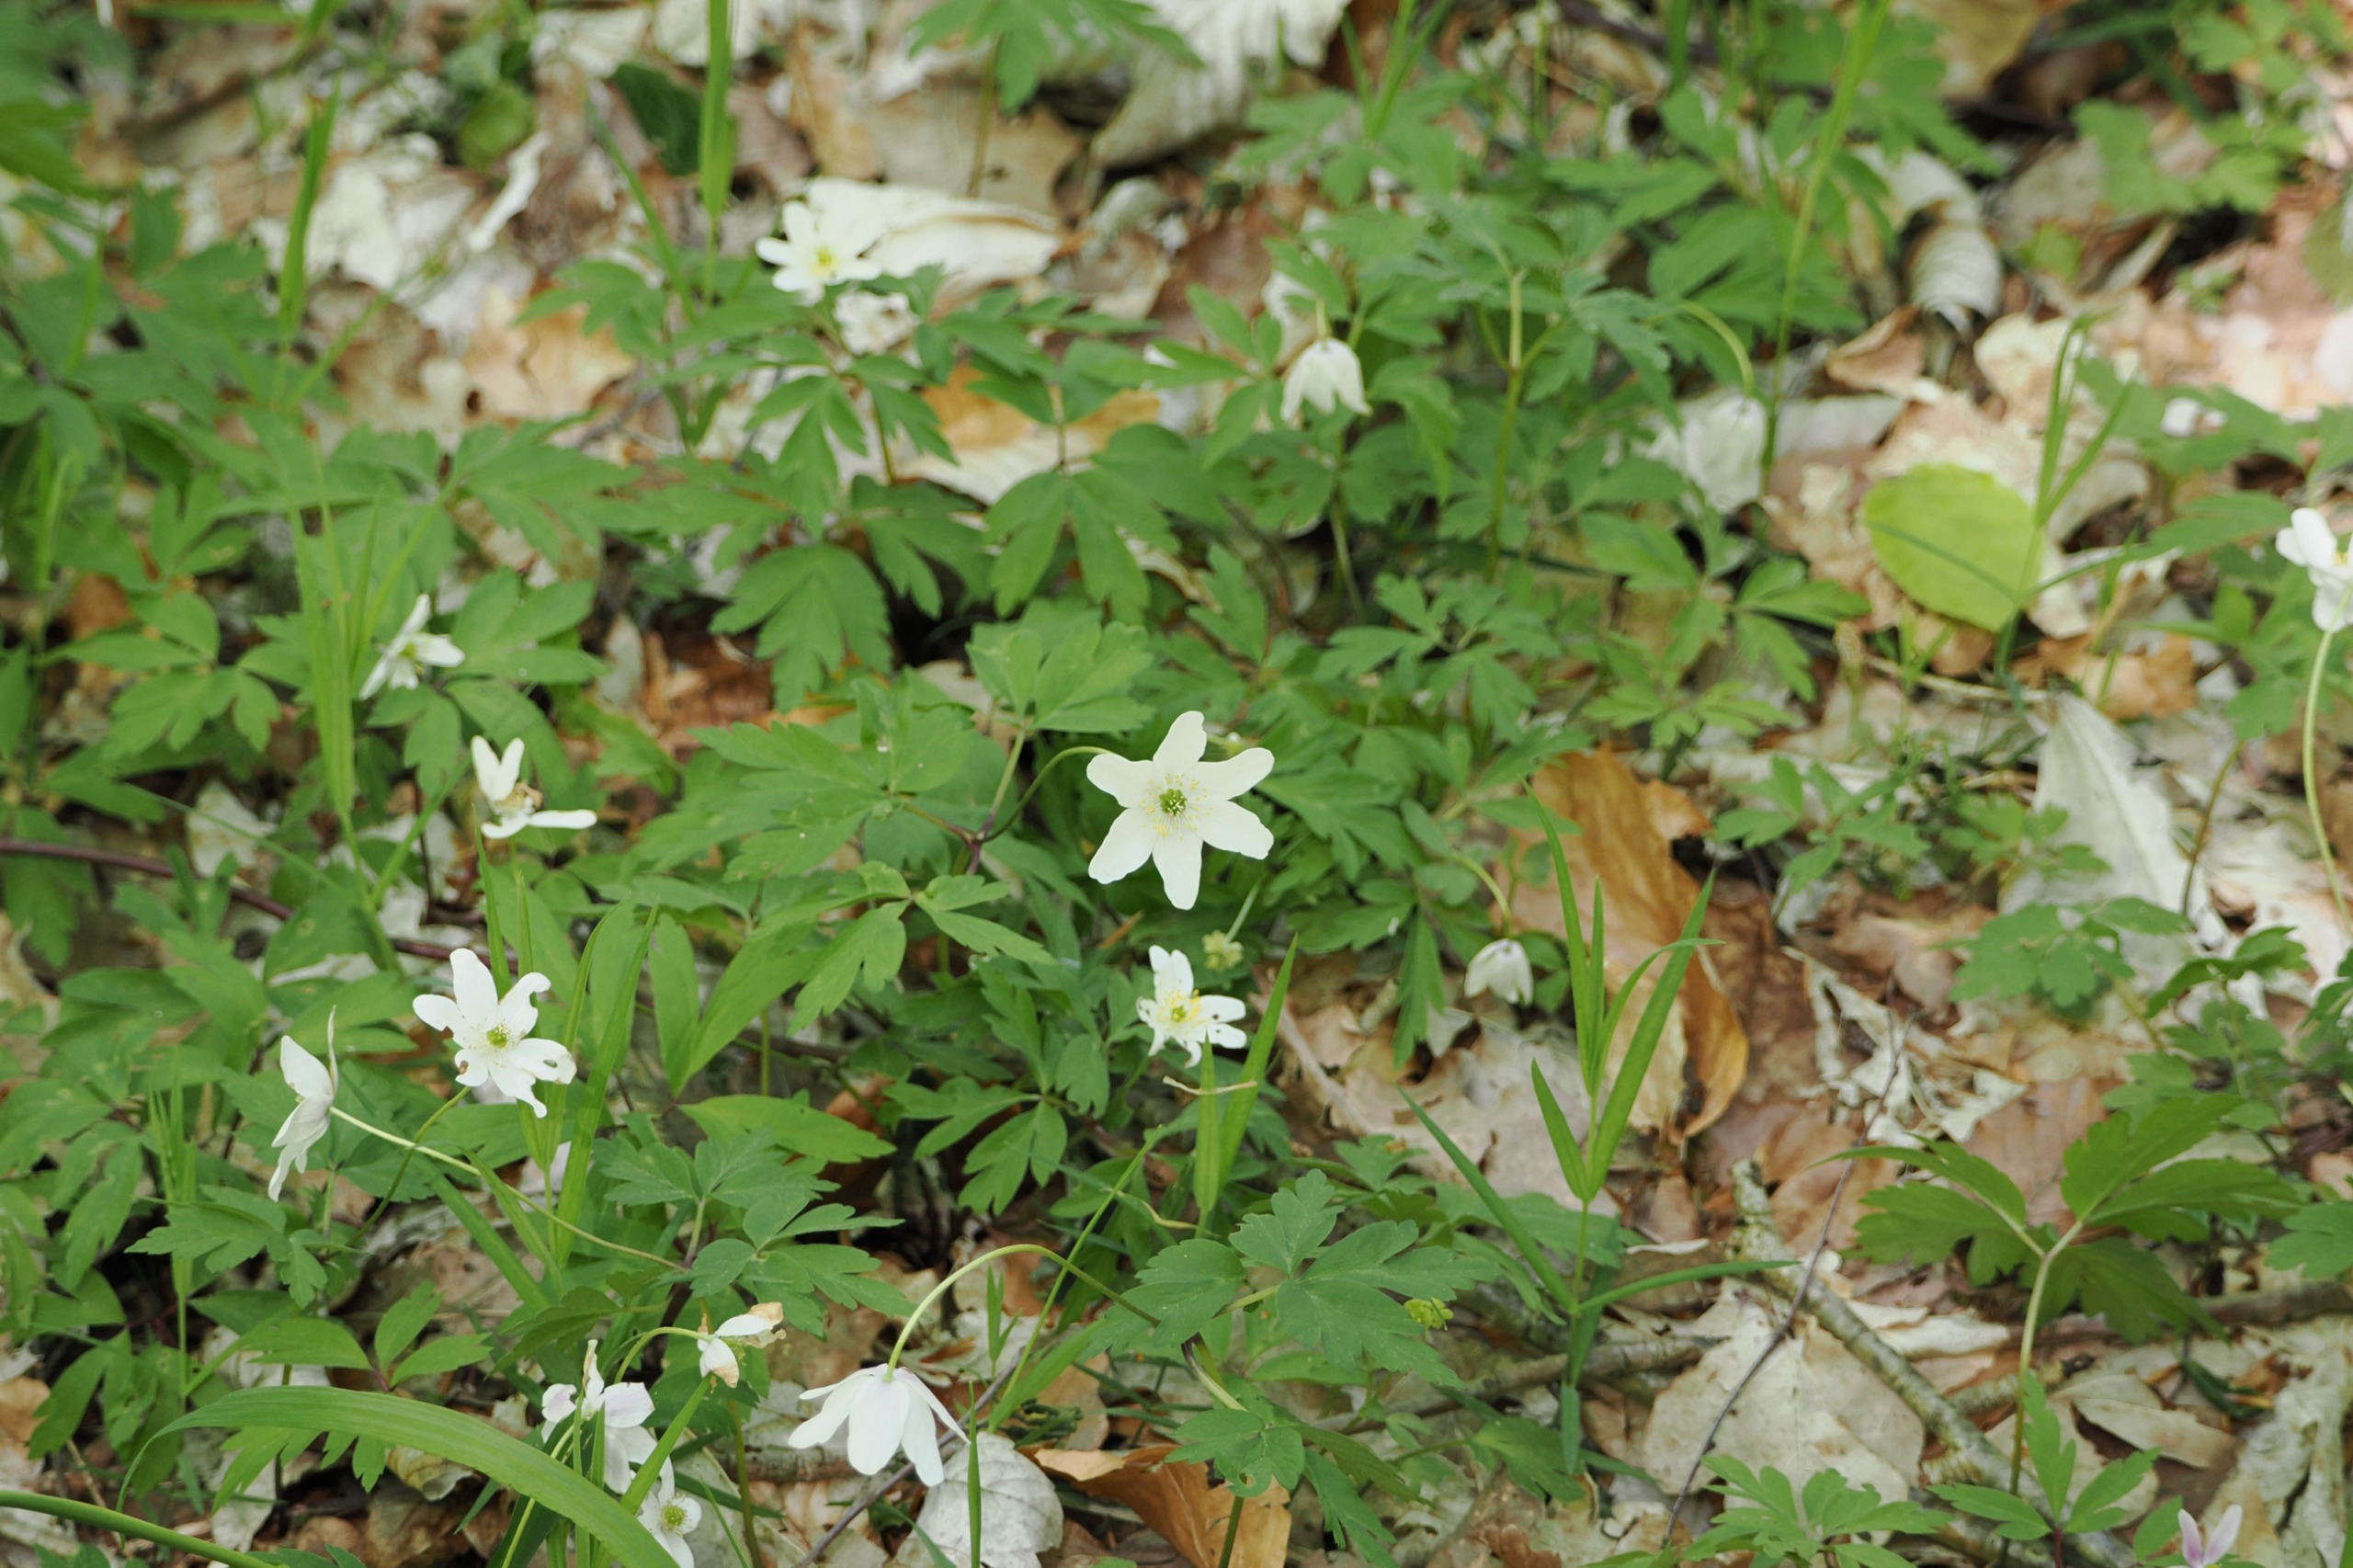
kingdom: Plantae
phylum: Tracheophyta
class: Magnoliopsida
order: Ranunculales
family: Ranunculaceae
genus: Anemone
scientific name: Anemone nemorosa
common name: Hvid anemone
